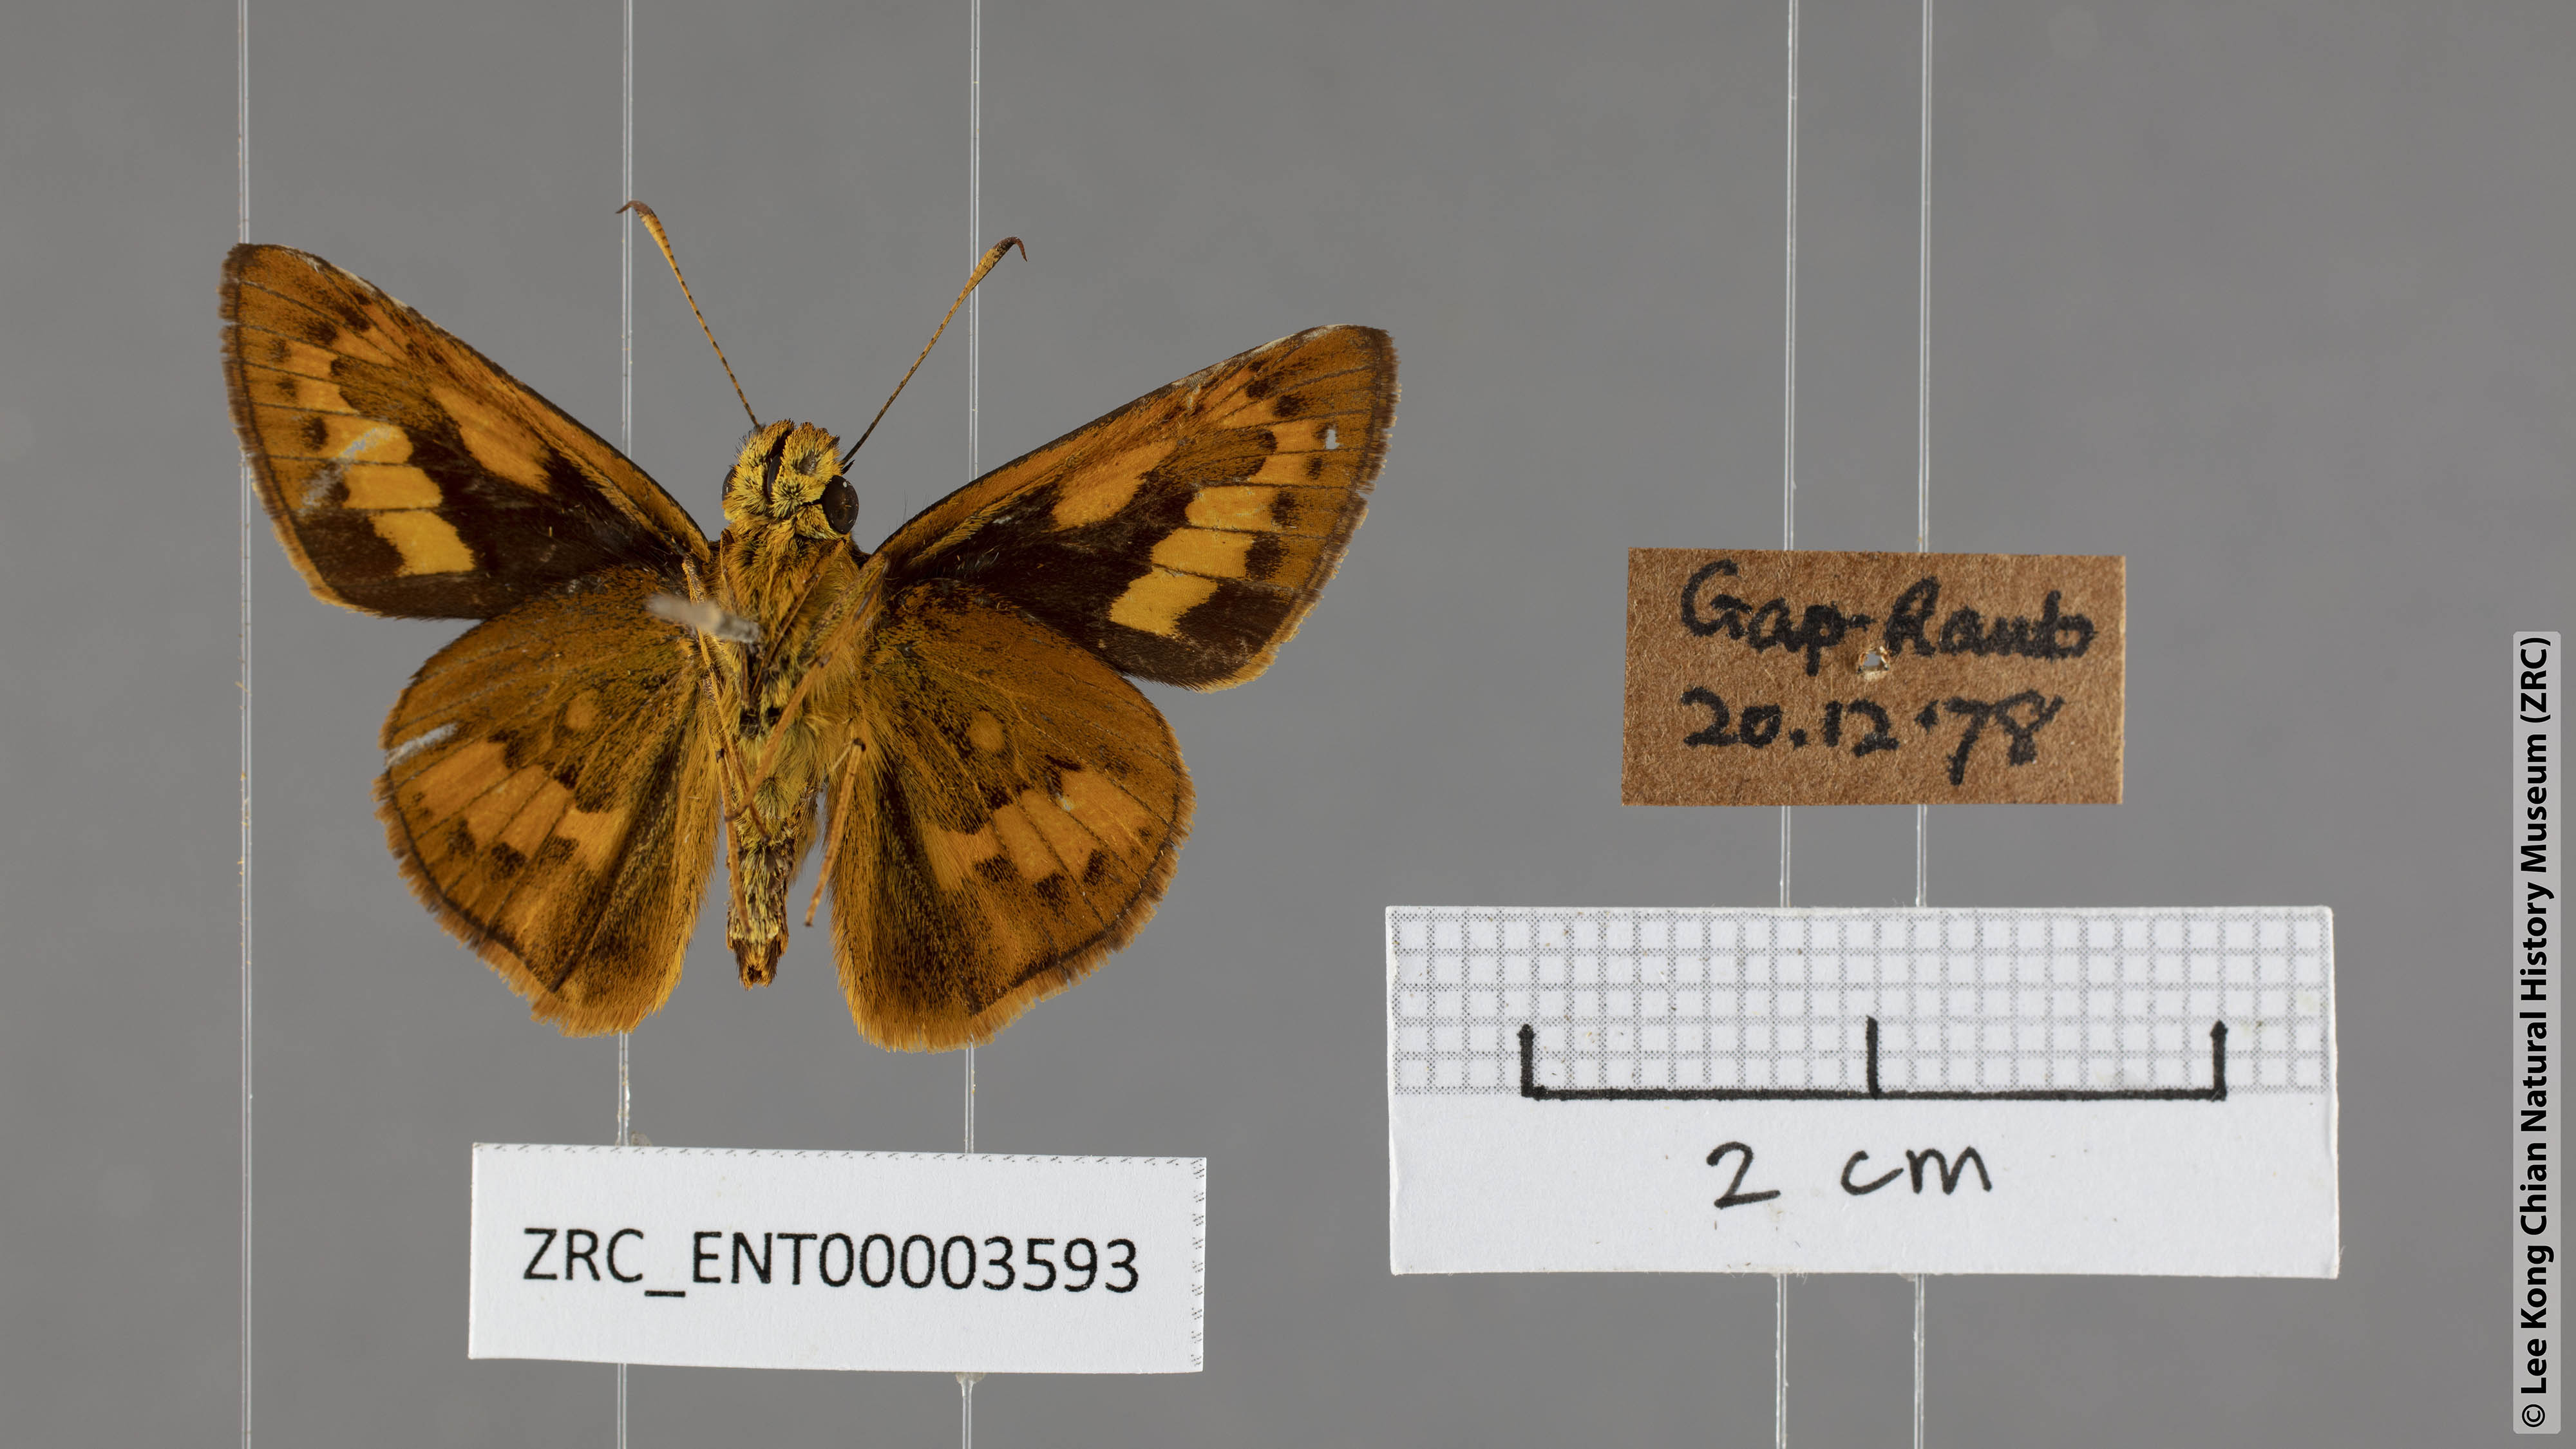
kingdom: Animalia
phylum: Arthropoda
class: Insecta
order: Lepidoptera
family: Hesperiidae
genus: Telicota
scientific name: Telicota hilda
